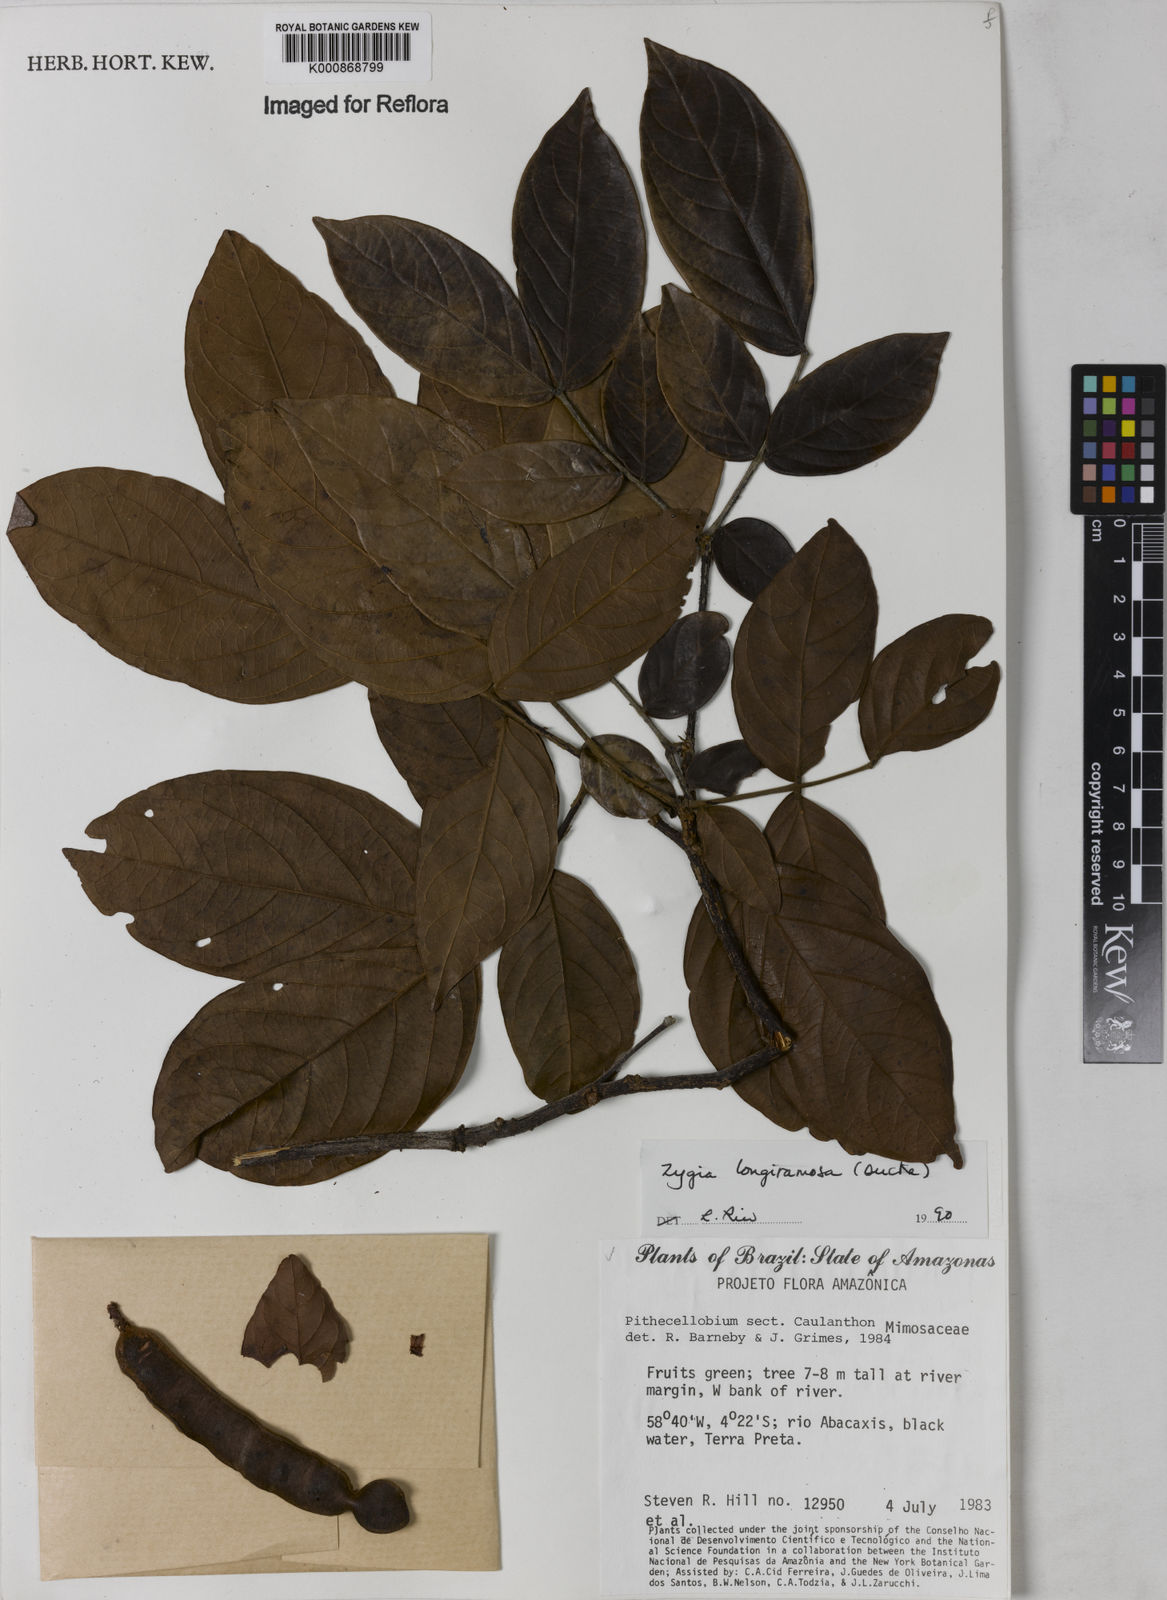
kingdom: Plantae
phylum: Tracheophyta
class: Magnoliopsida
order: Fabales
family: Fabaceae
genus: Zygia
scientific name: Zygia inaequalis
